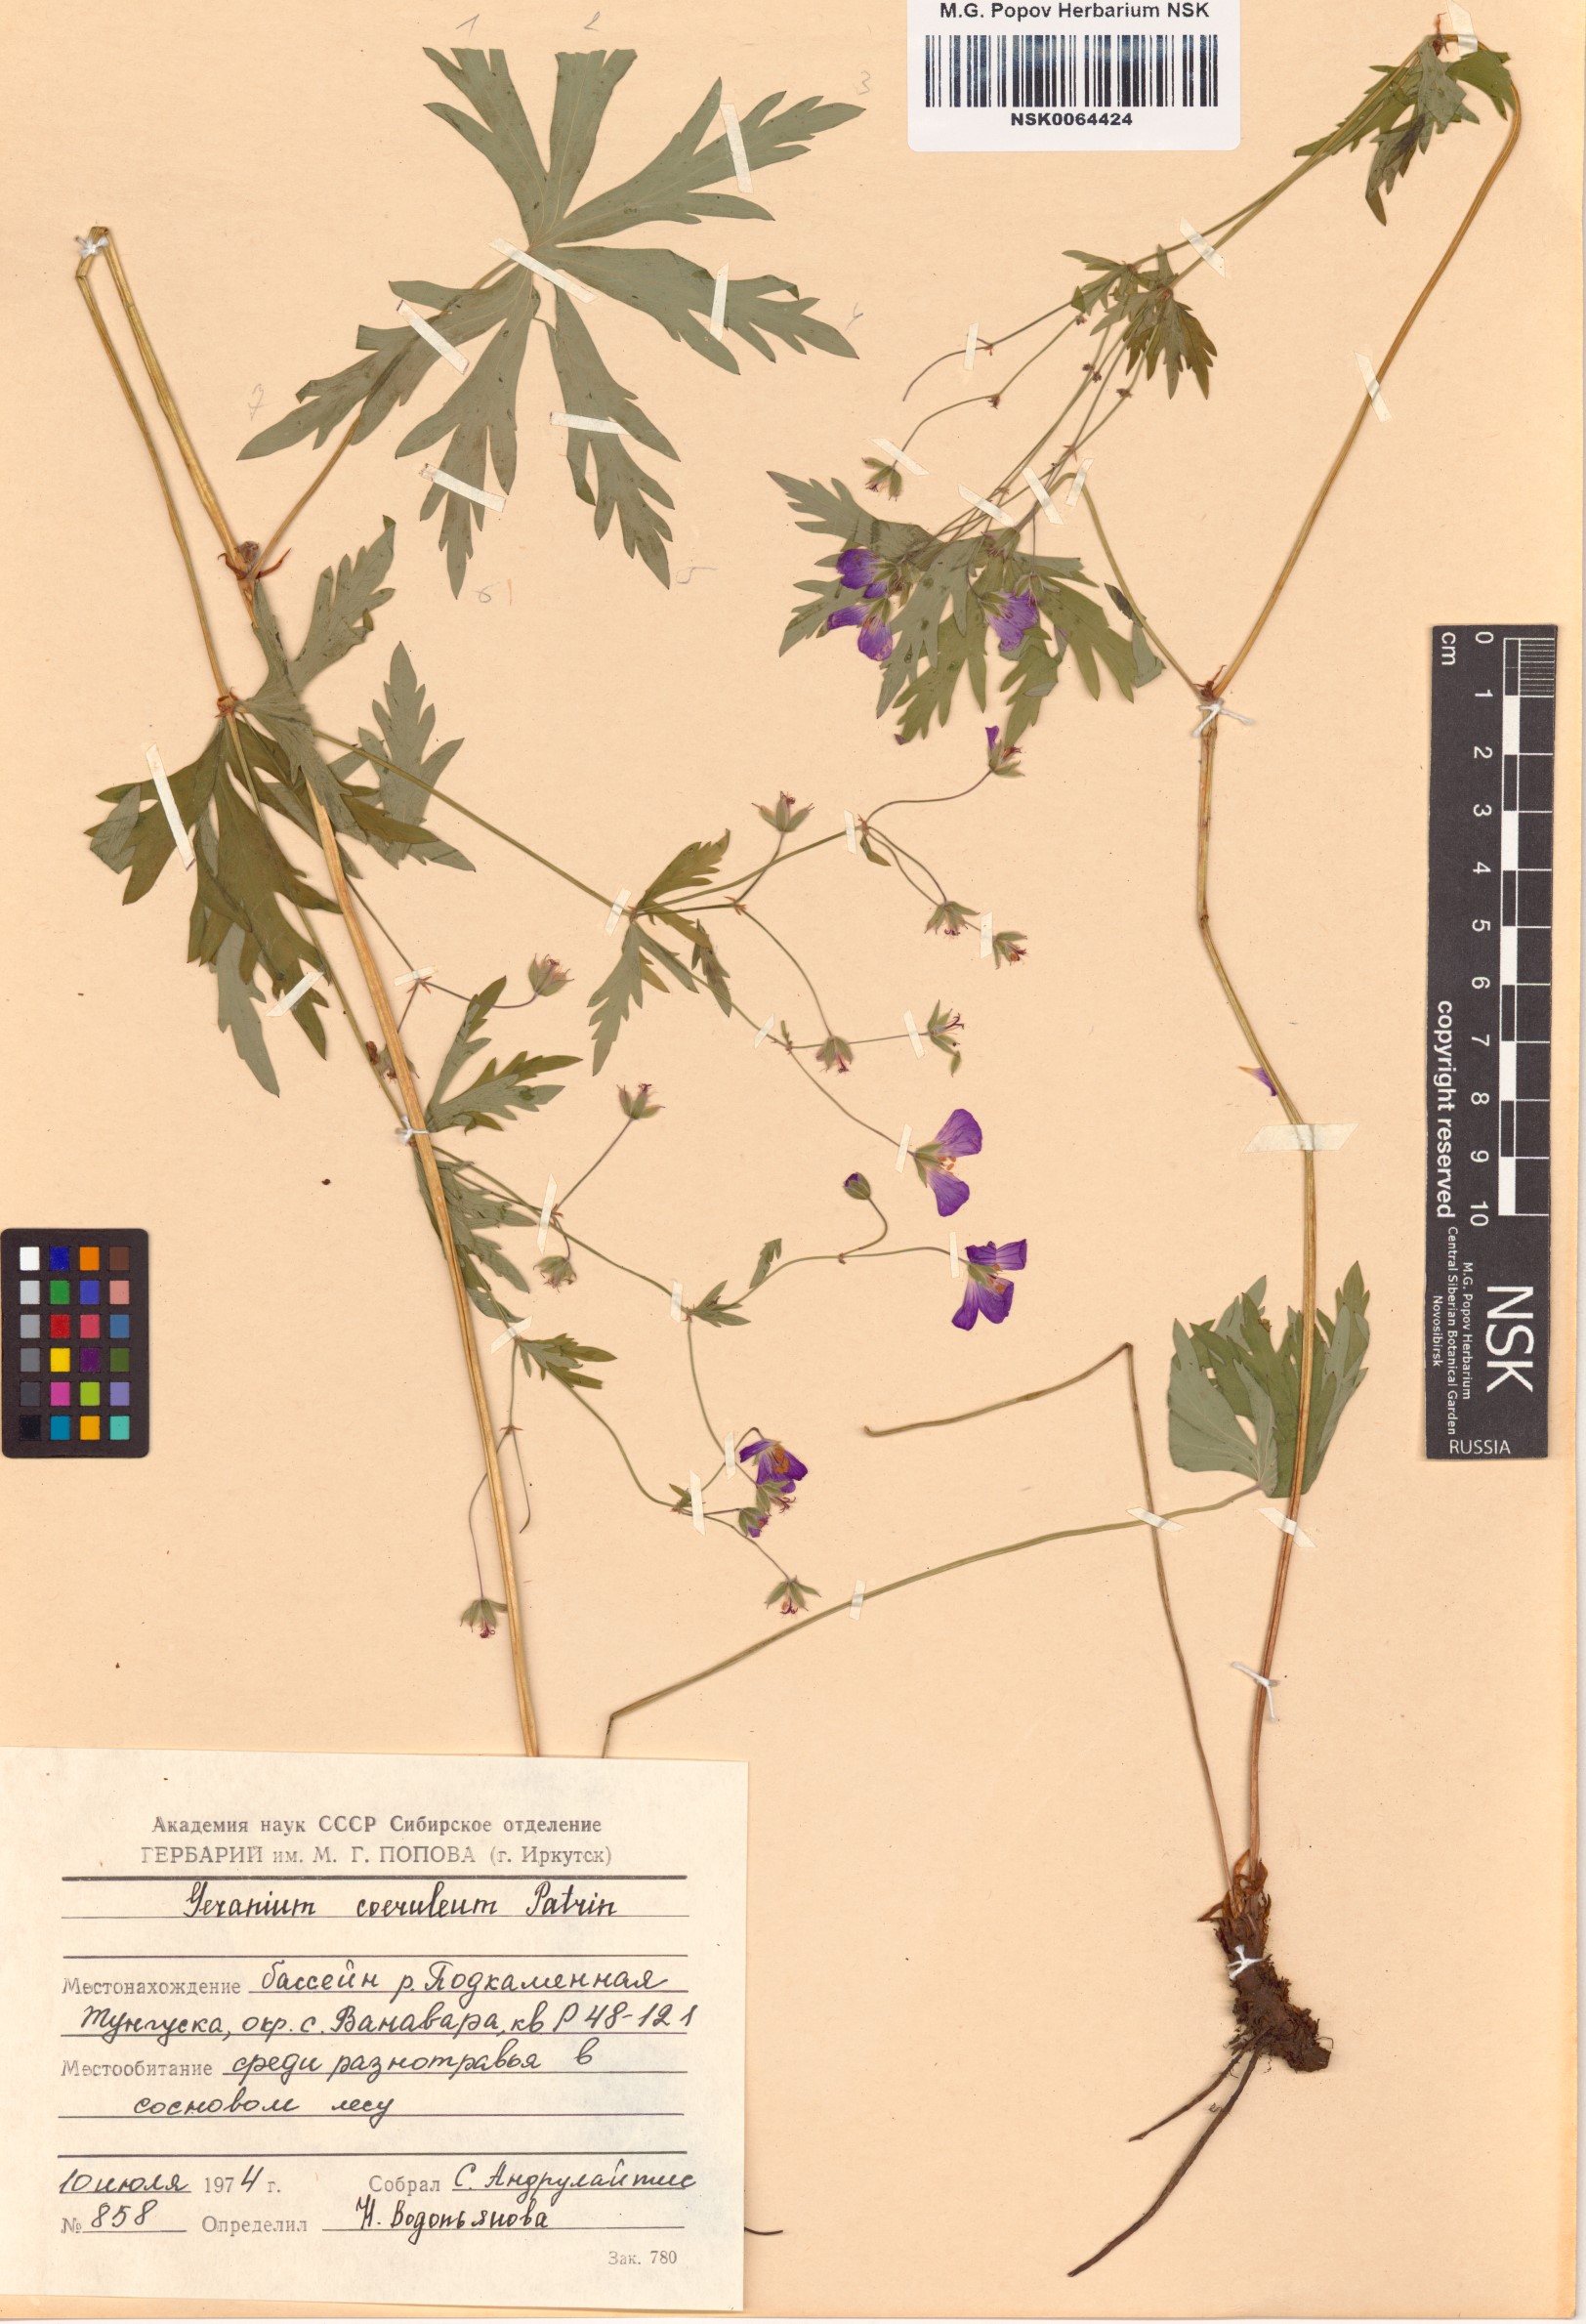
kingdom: Plantae
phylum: Tracheophyta
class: Magnoliopsida
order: Geraniales
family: Geraniaceae
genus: Geranium
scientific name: Geranium pseudosibiricum
